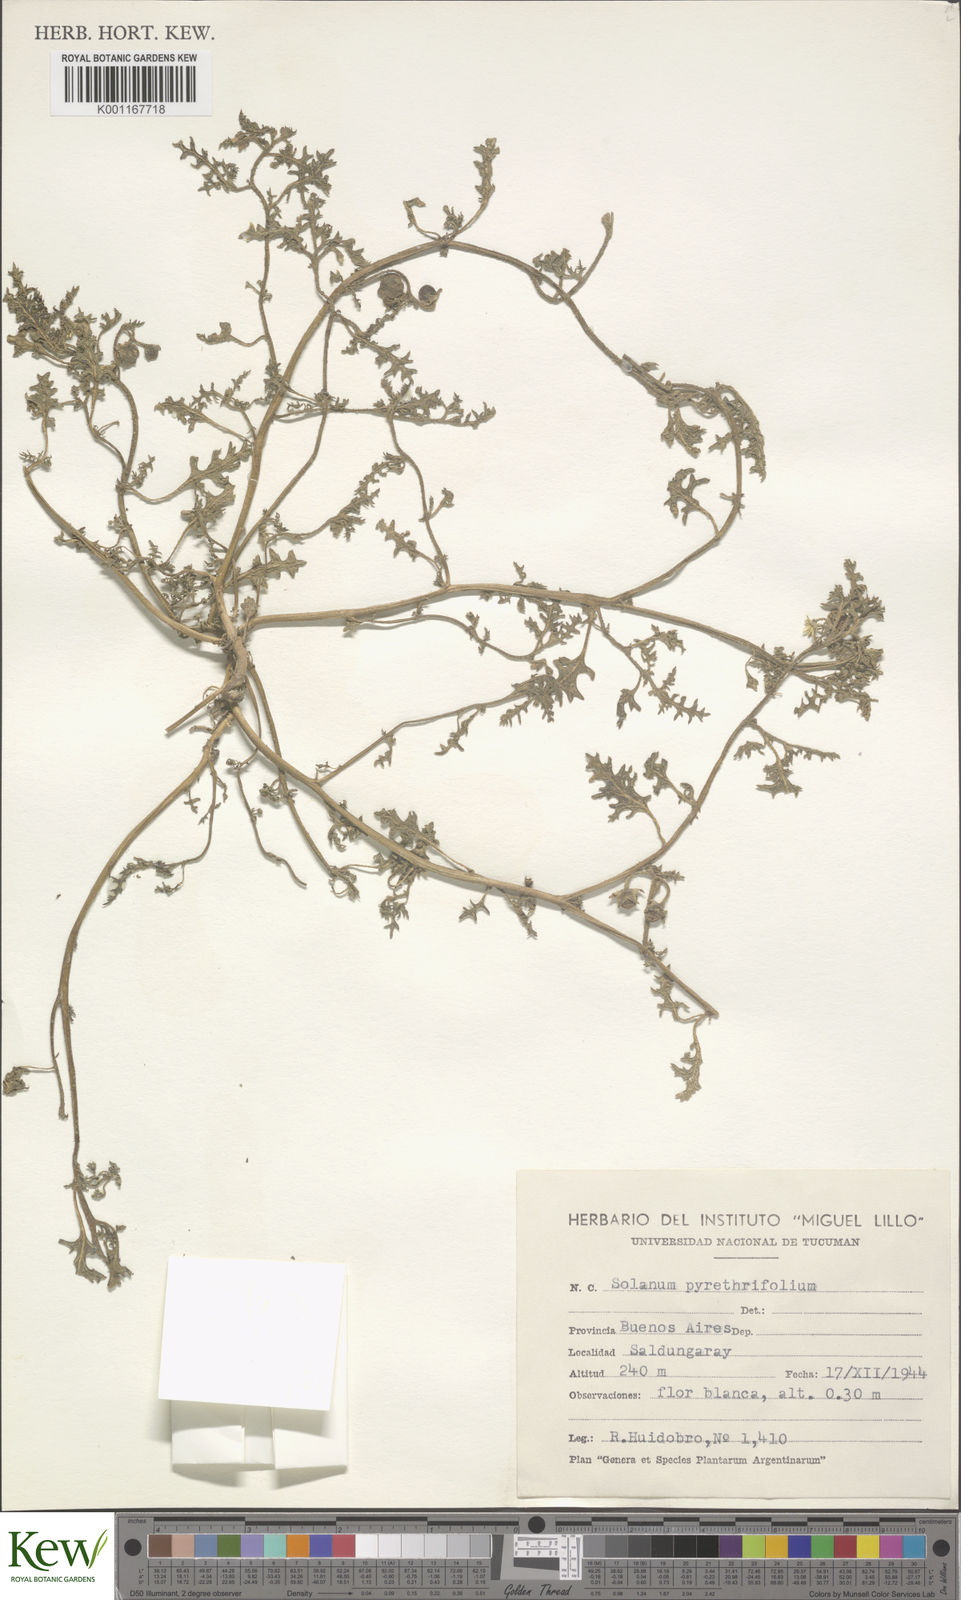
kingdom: Plantae
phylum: Tracheophyta
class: Magnoliopsida
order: Solanales
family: Solanaceae
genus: Solanum
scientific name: Solanum triflorum
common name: Small nightshade
